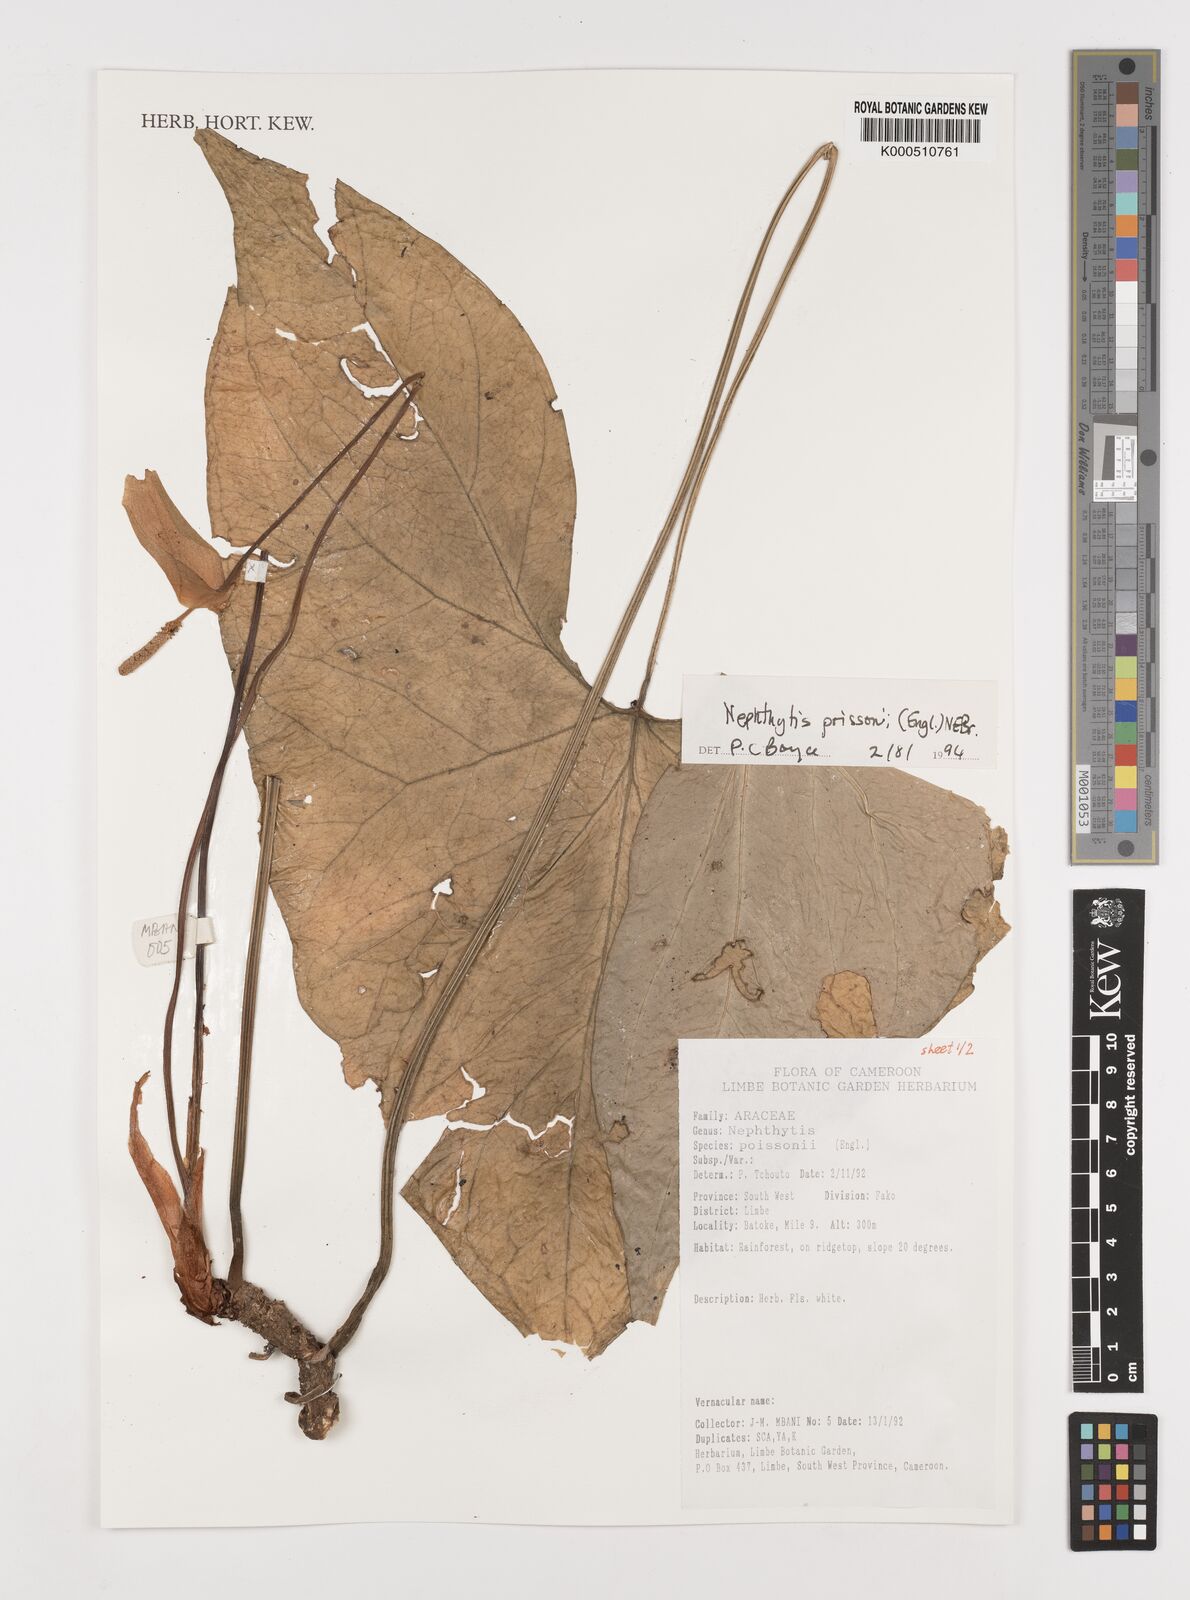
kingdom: Plantae
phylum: Tracheophyta
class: Liliopsida
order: Alismatales
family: Araceae
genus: Nephthytis
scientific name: Nephthytis poissonii
